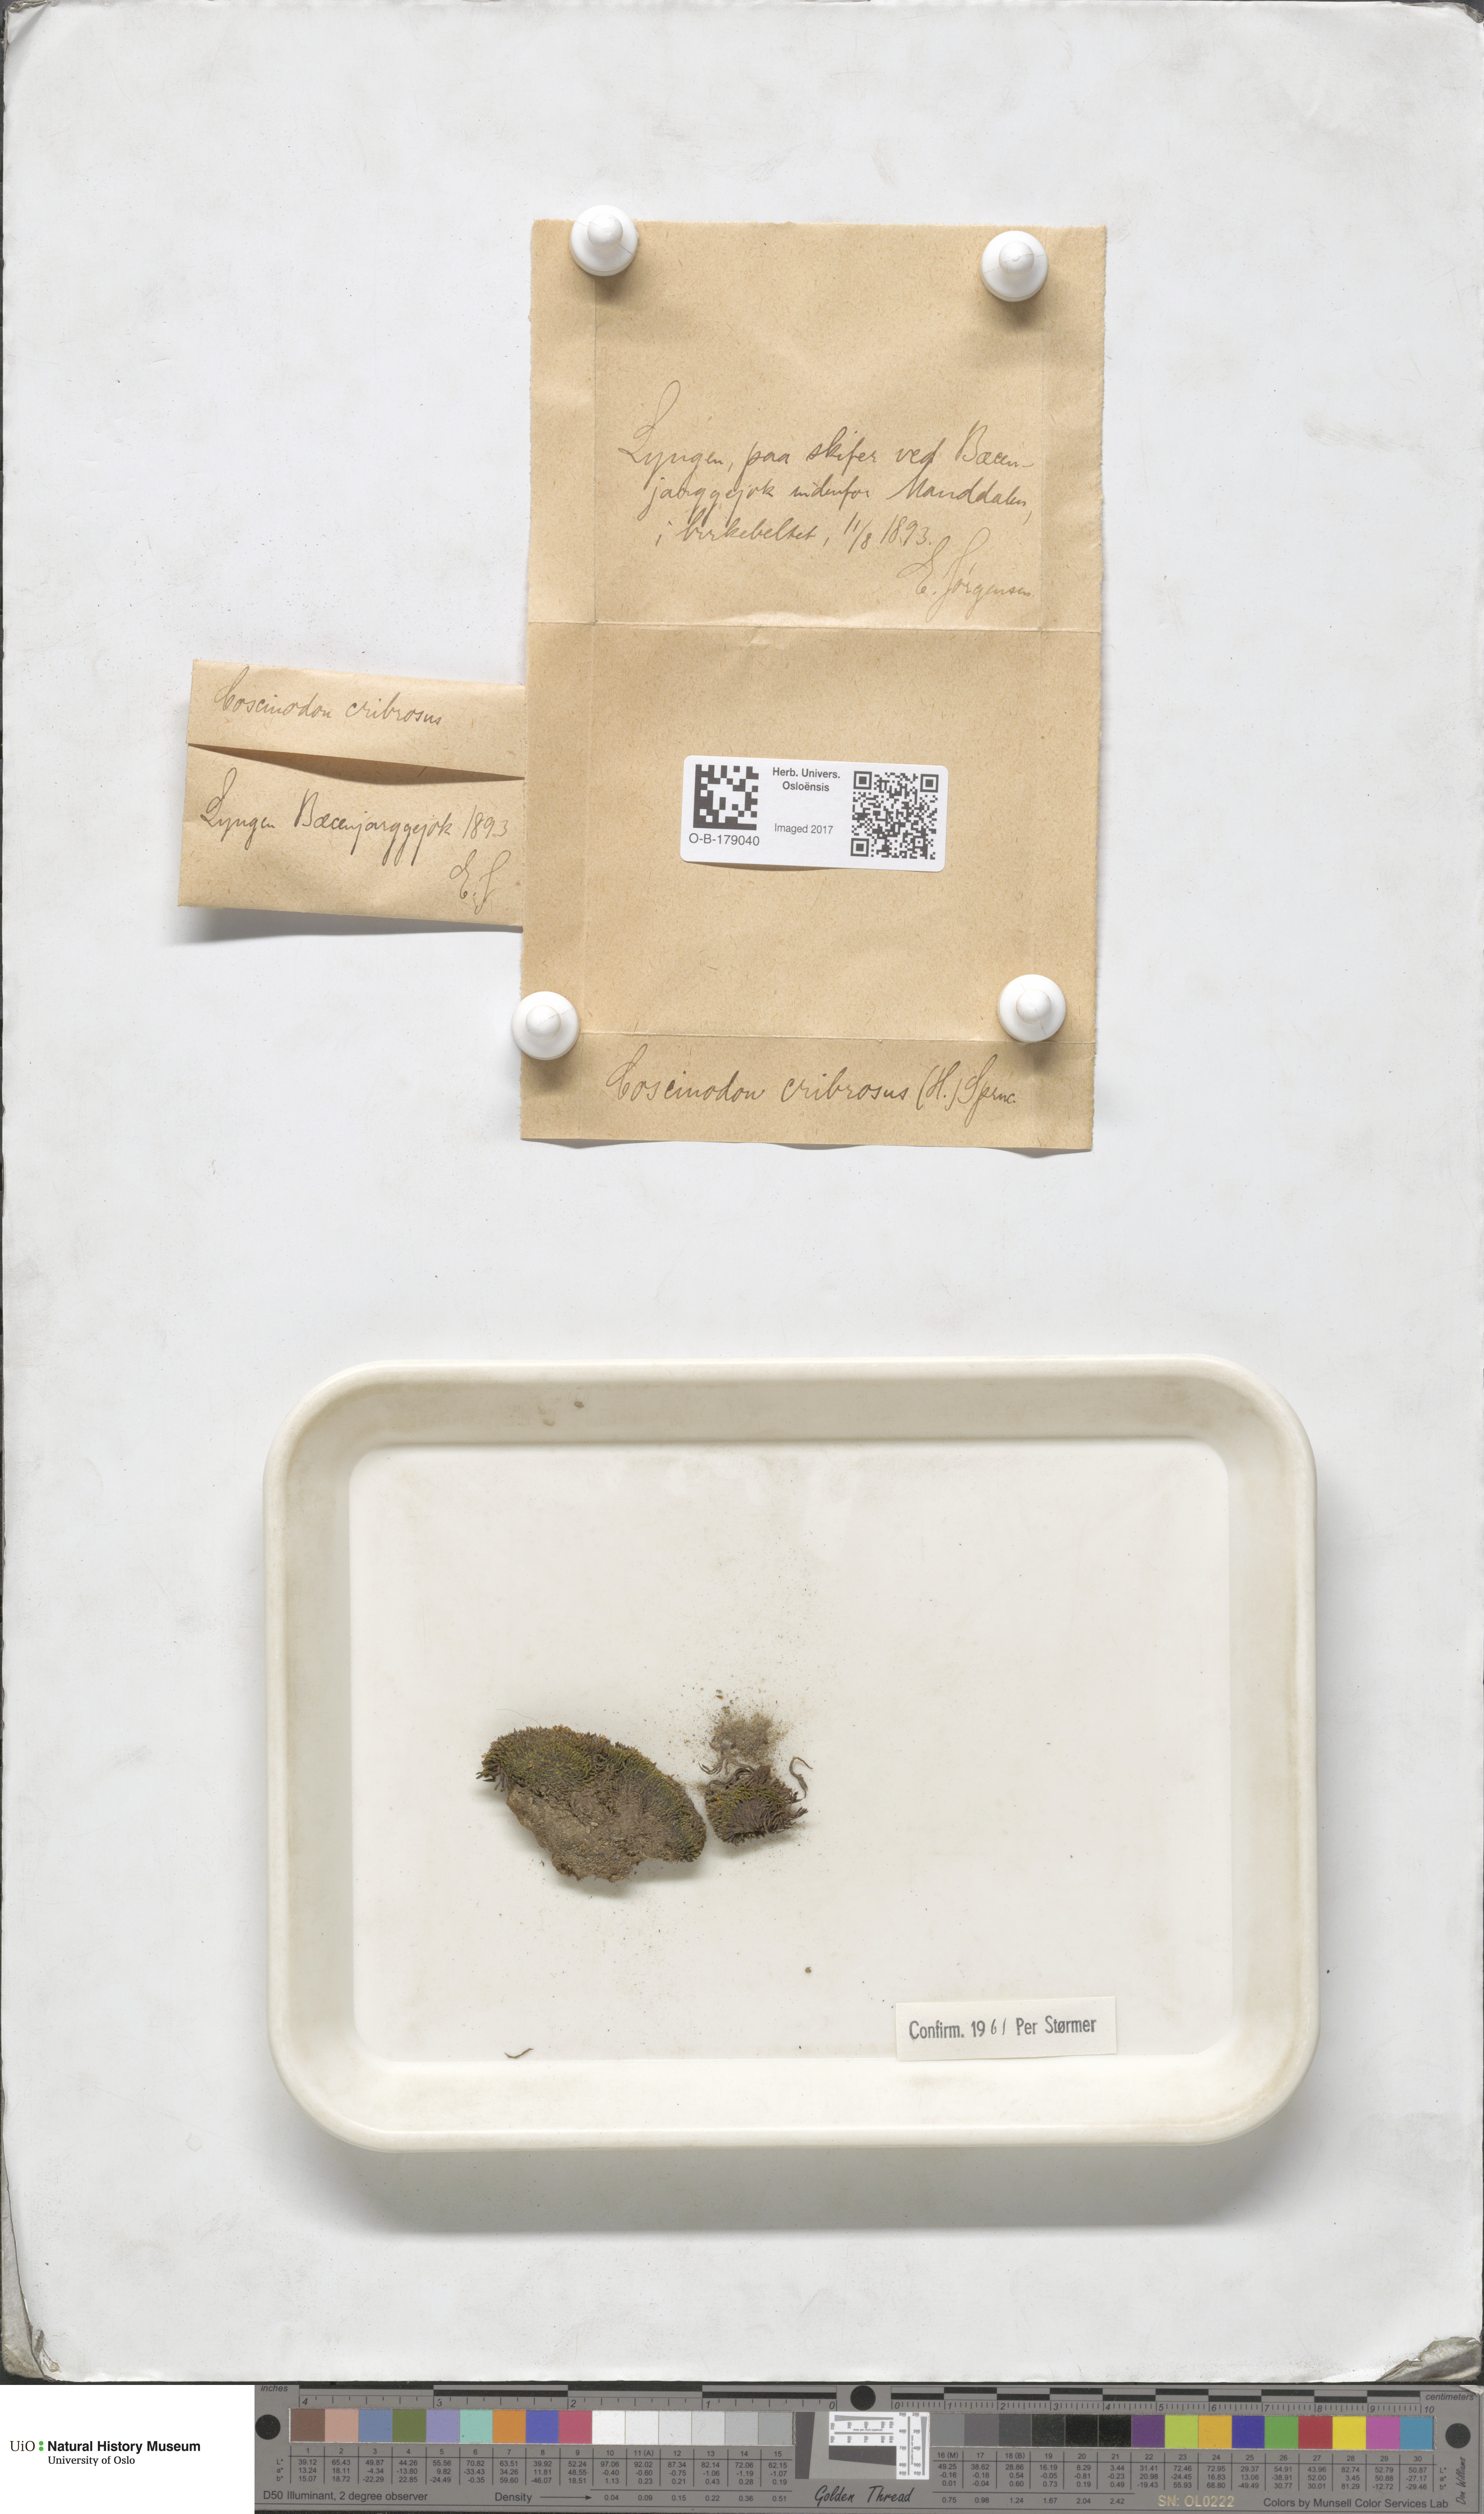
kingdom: Plantae
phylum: Bryophyta
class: Bryopsida
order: Bartramiales
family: Bartramiaceae
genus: Conostomum
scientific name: Conostomum tetragonum
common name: Helmet moss
